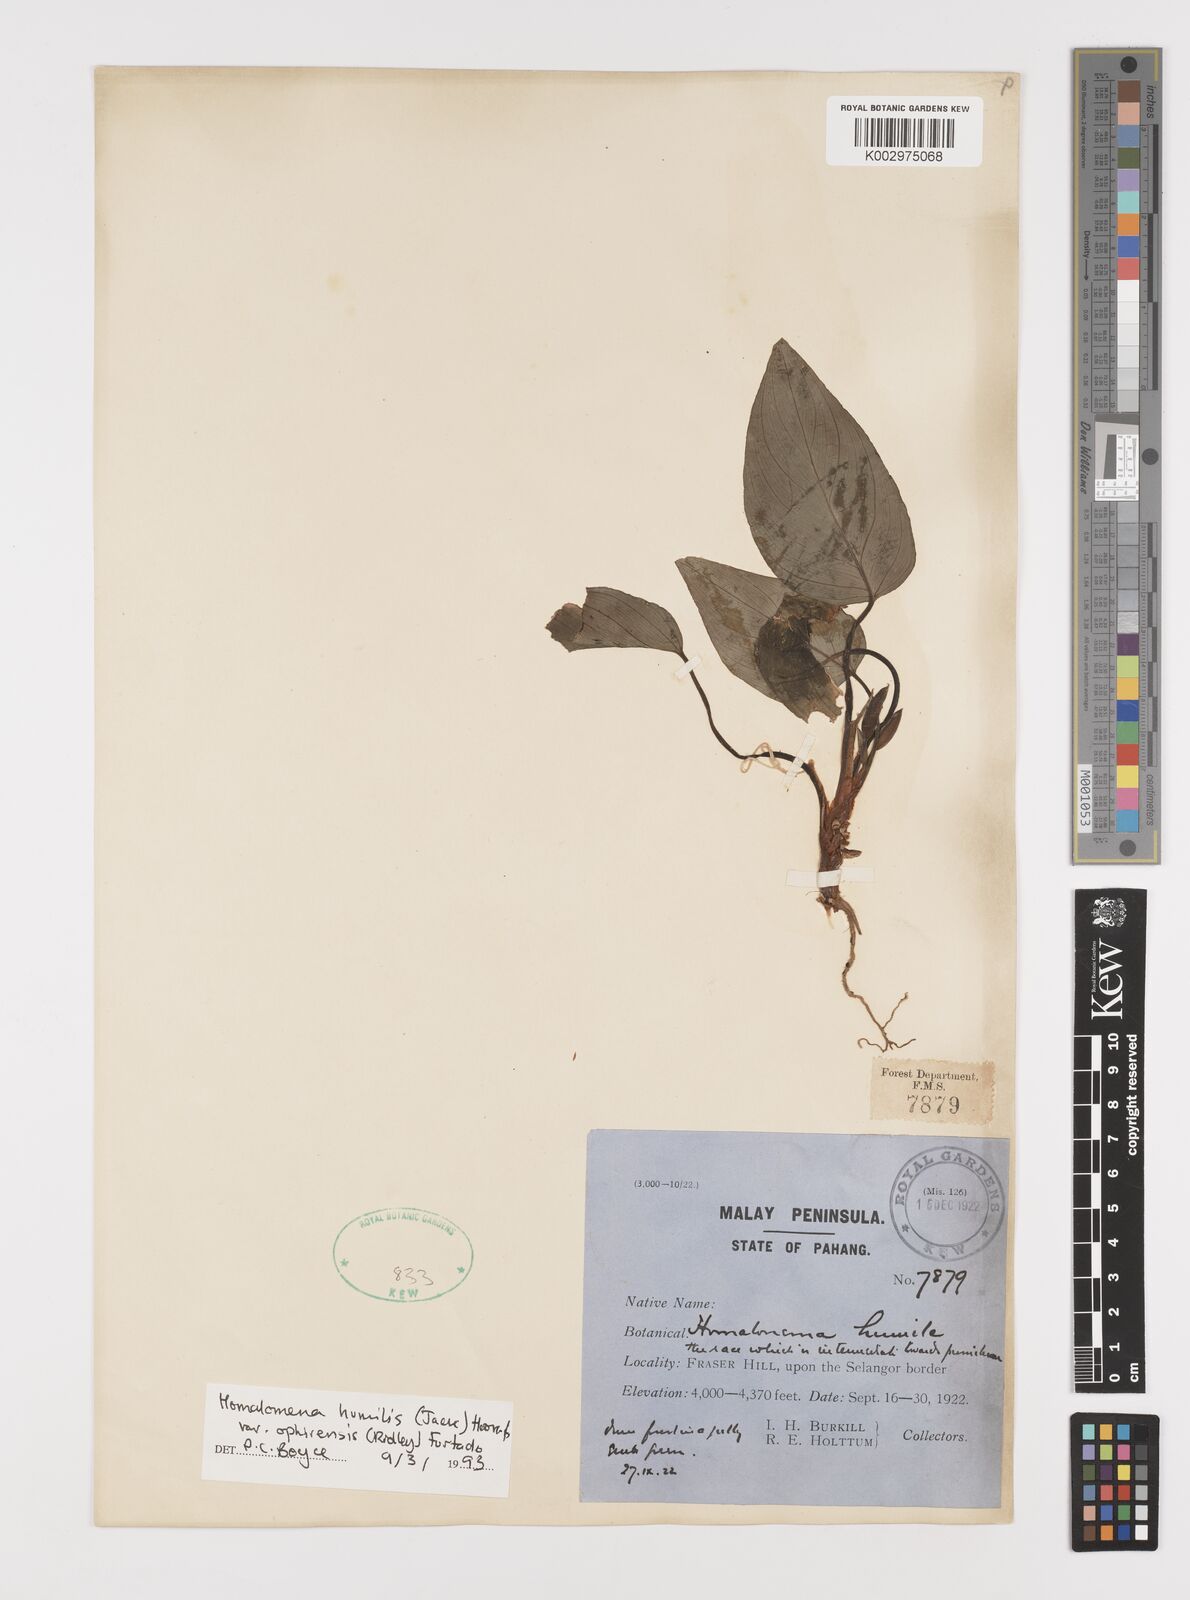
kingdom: Plantae
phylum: Tracheophyta
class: Liliopsida
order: Alismatales
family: Araceae
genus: Homalomena
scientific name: Homalomena humilis
